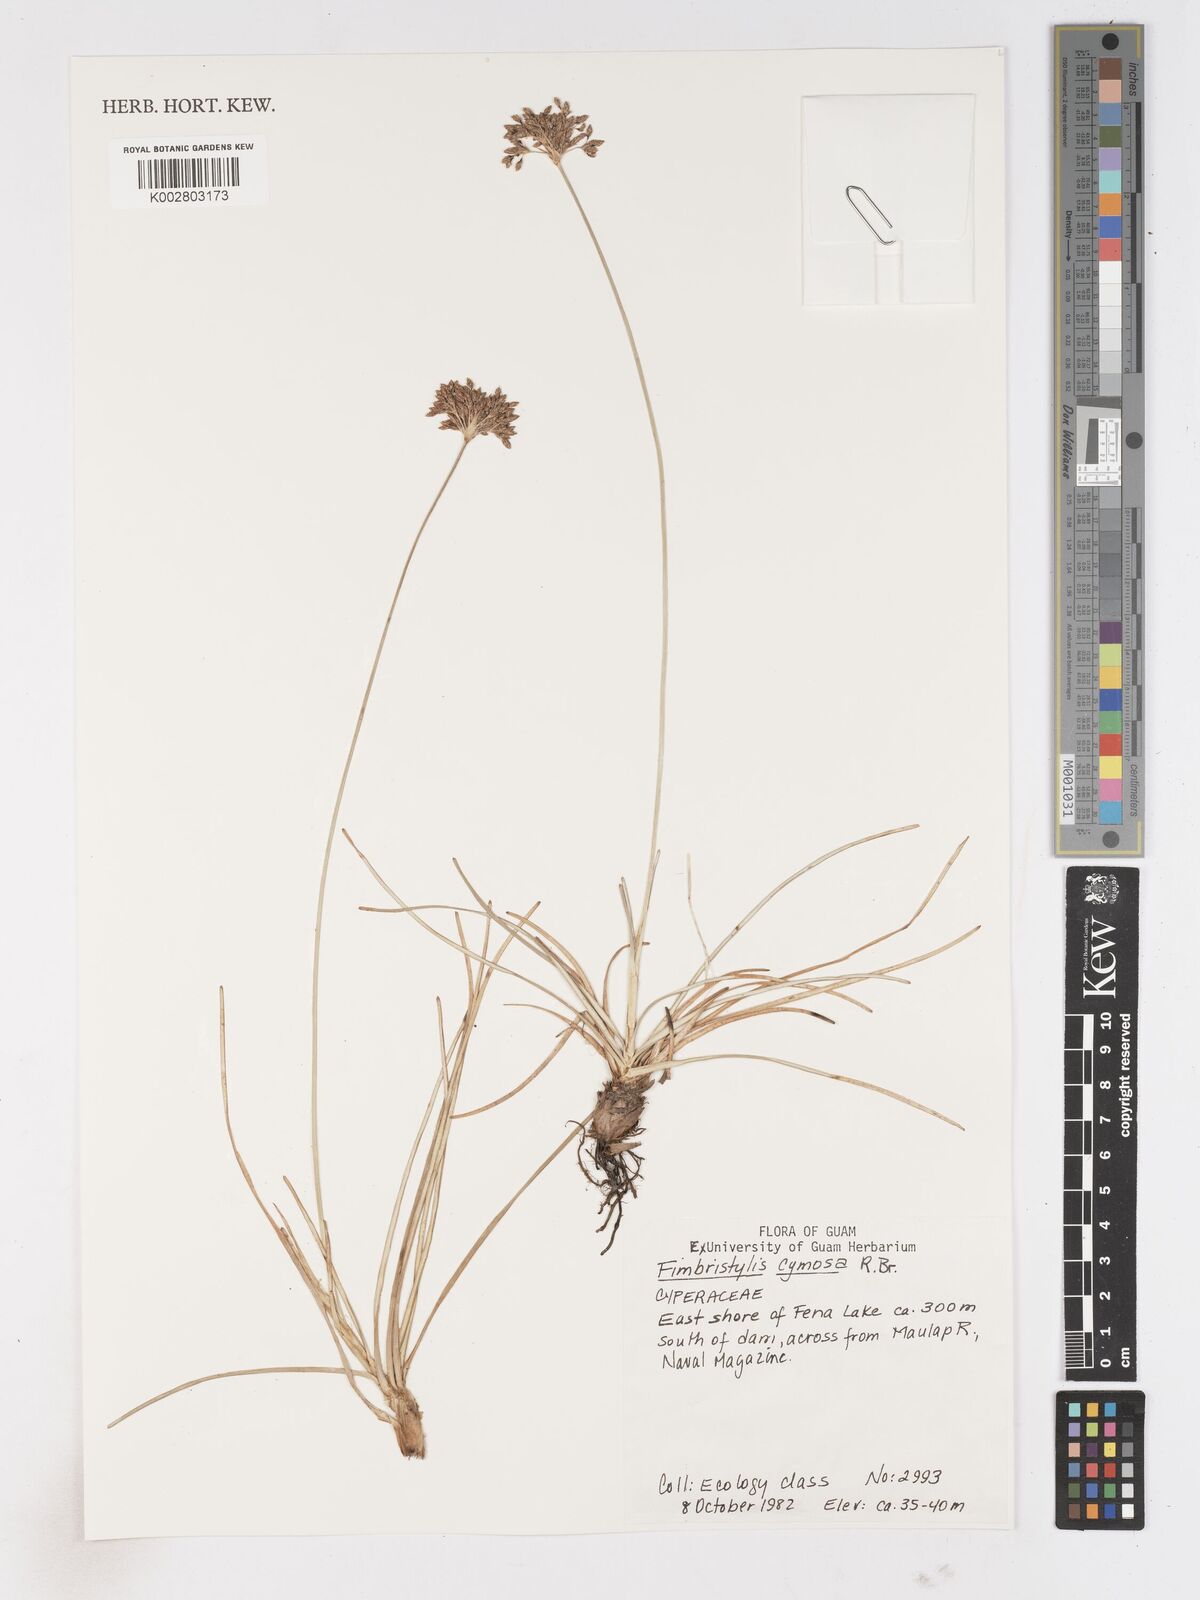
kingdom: Plantae
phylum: Tracheophyta
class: Liliopsida
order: Poales
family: Cyperaceae
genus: Fimbristylis
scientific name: Fimbristylis cymosa
